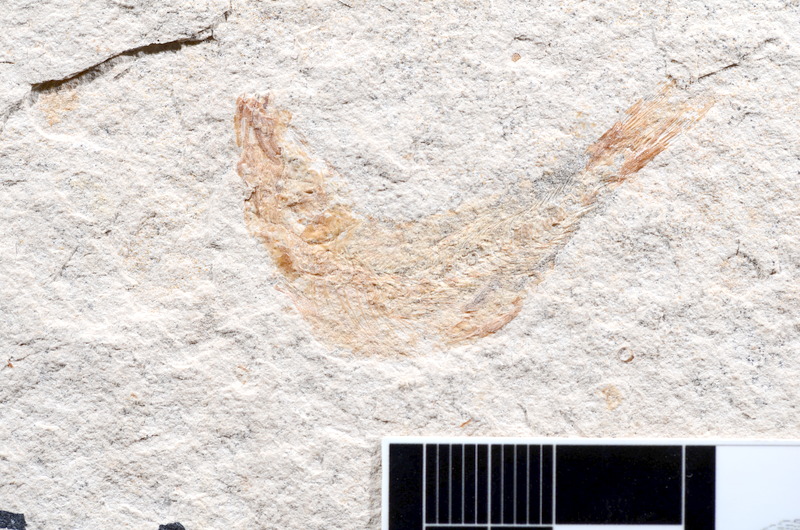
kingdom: Animalia
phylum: Chordata
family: Ascalaboidae
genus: Tharsis
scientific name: Tharsis dubius
